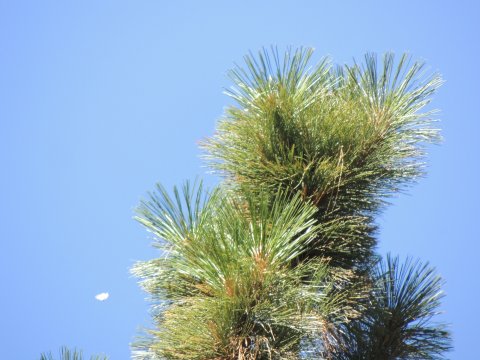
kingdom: Animalia
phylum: Arthropoda
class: Insecta
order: Lepidoptera
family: Pieridae
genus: Neophasia
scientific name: Neophasia menapia
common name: Pine White
